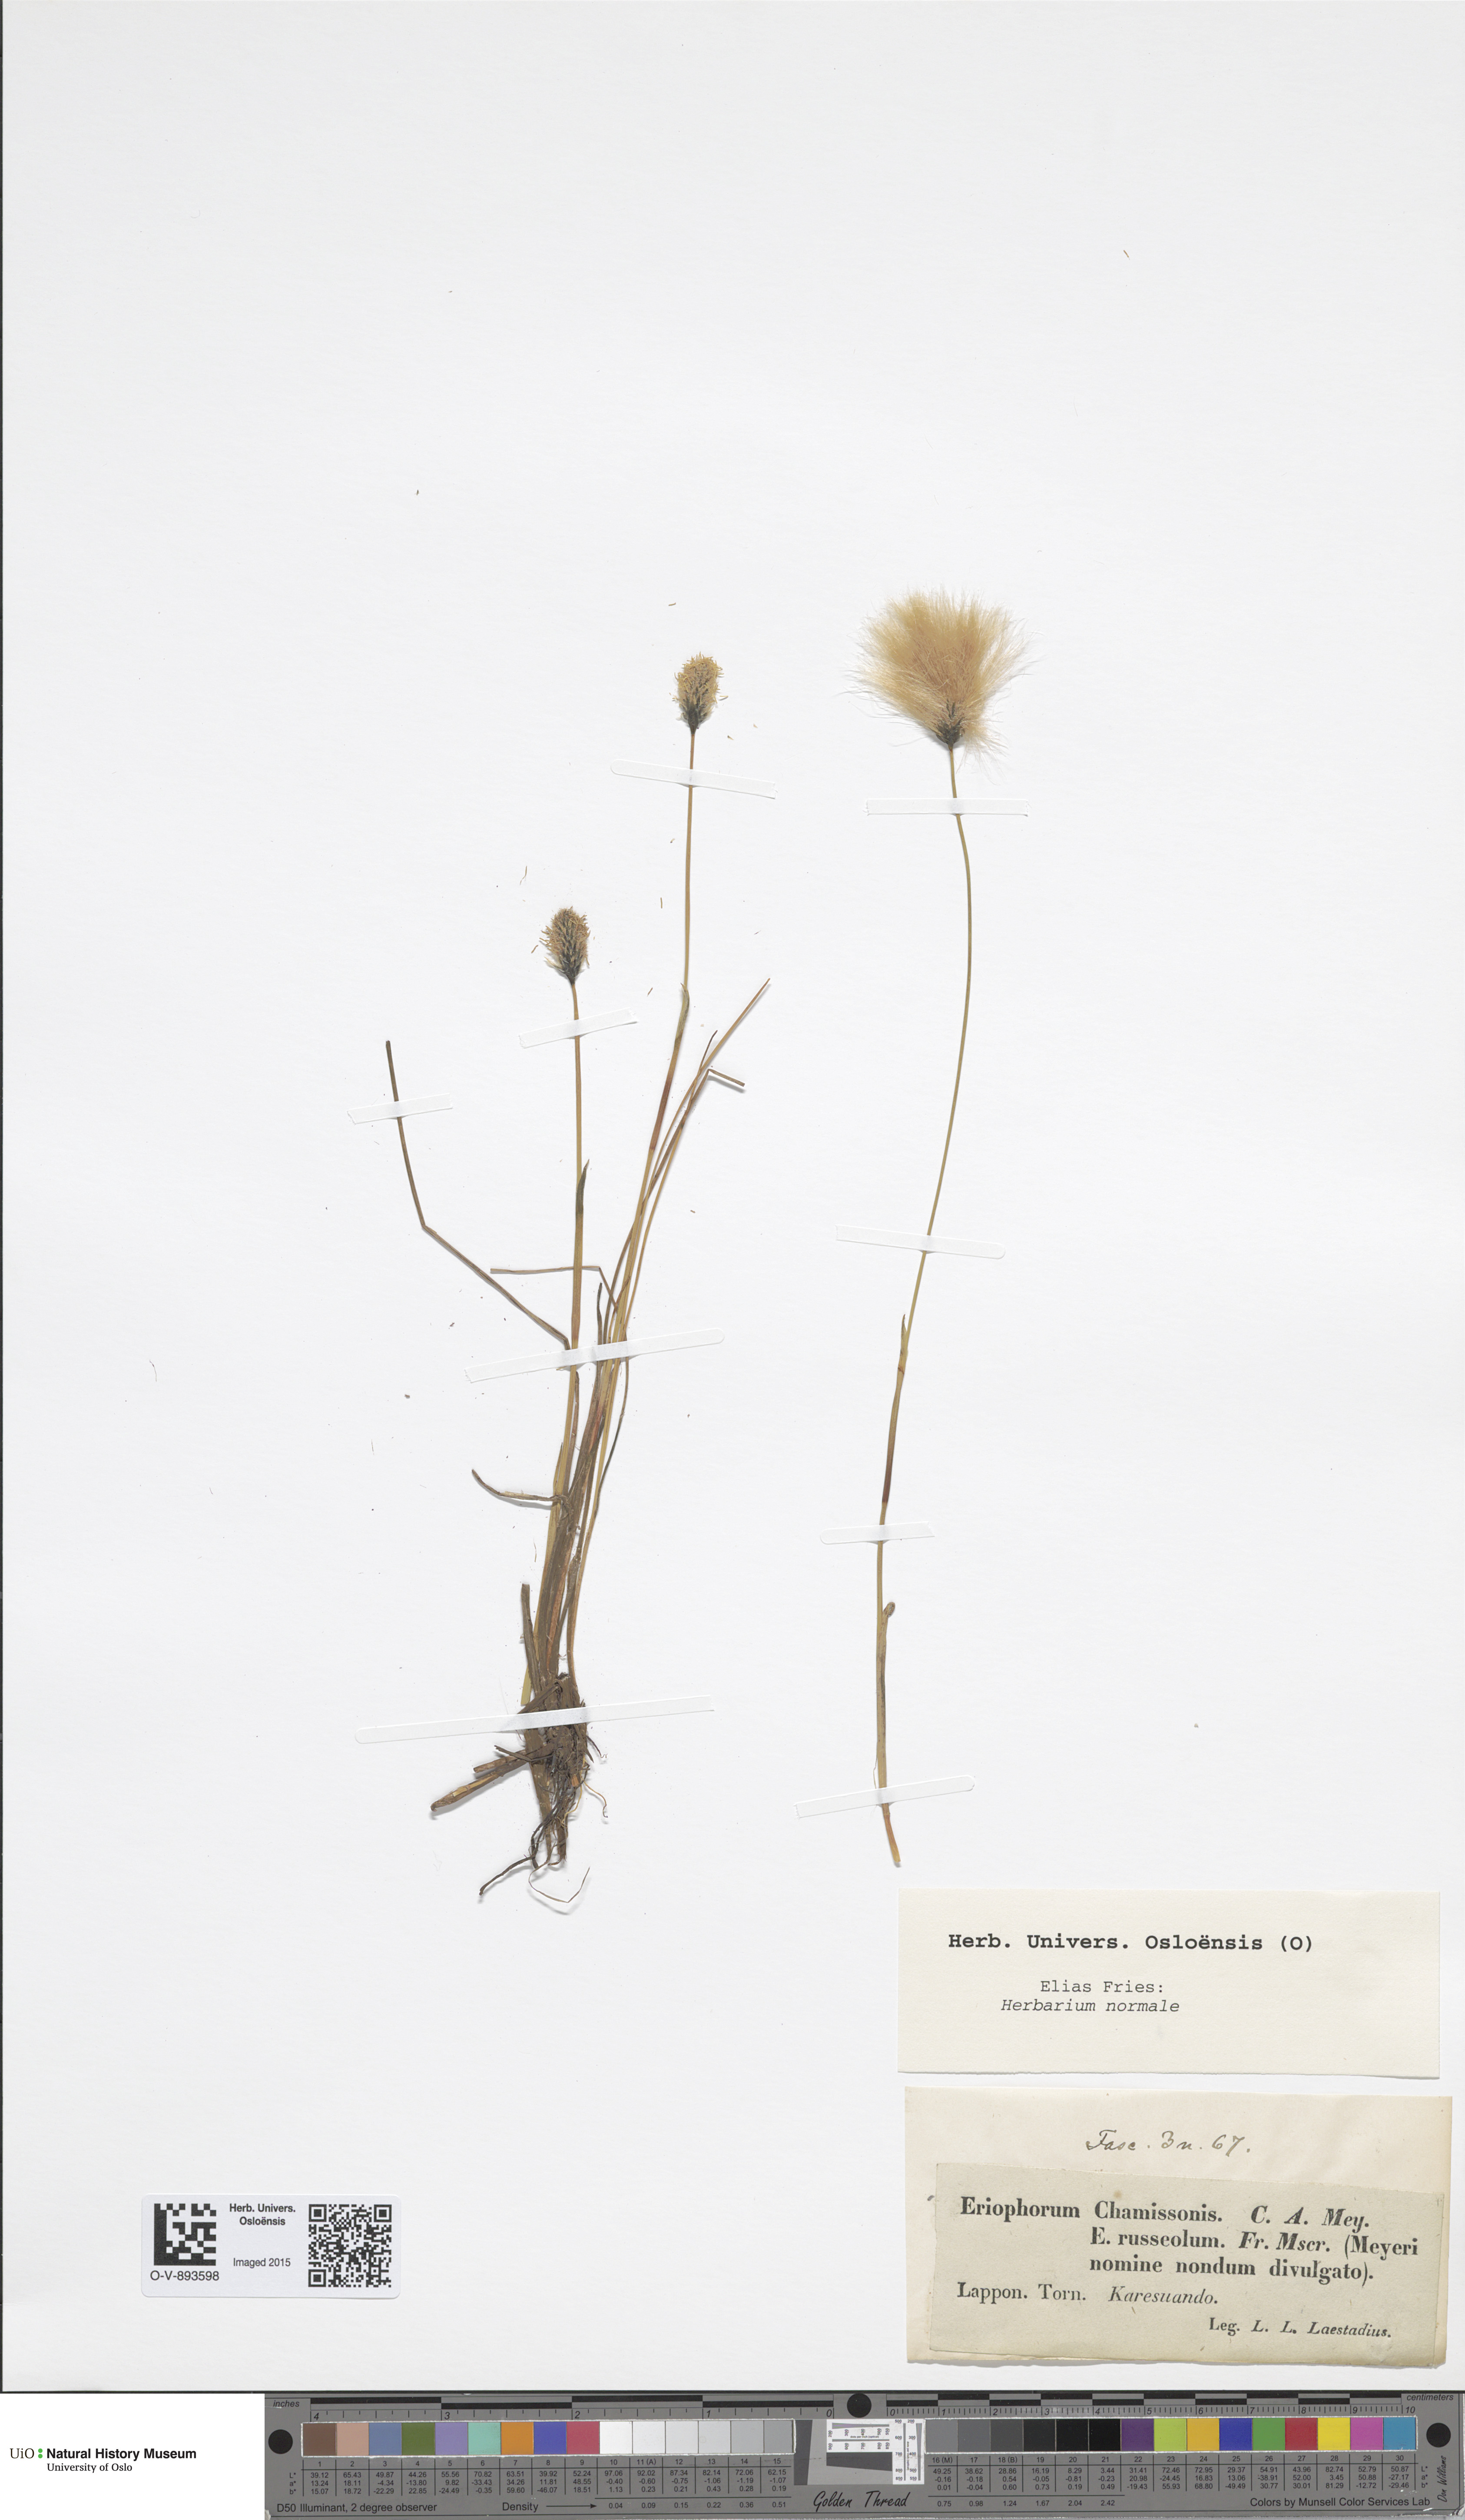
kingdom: Plantae
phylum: Tracheophyta
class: Liliopsida
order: Poales
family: Cyperaceae
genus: Eriophorum
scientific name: Eriophorum chamissonis
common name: Chamisso's cottongrass
